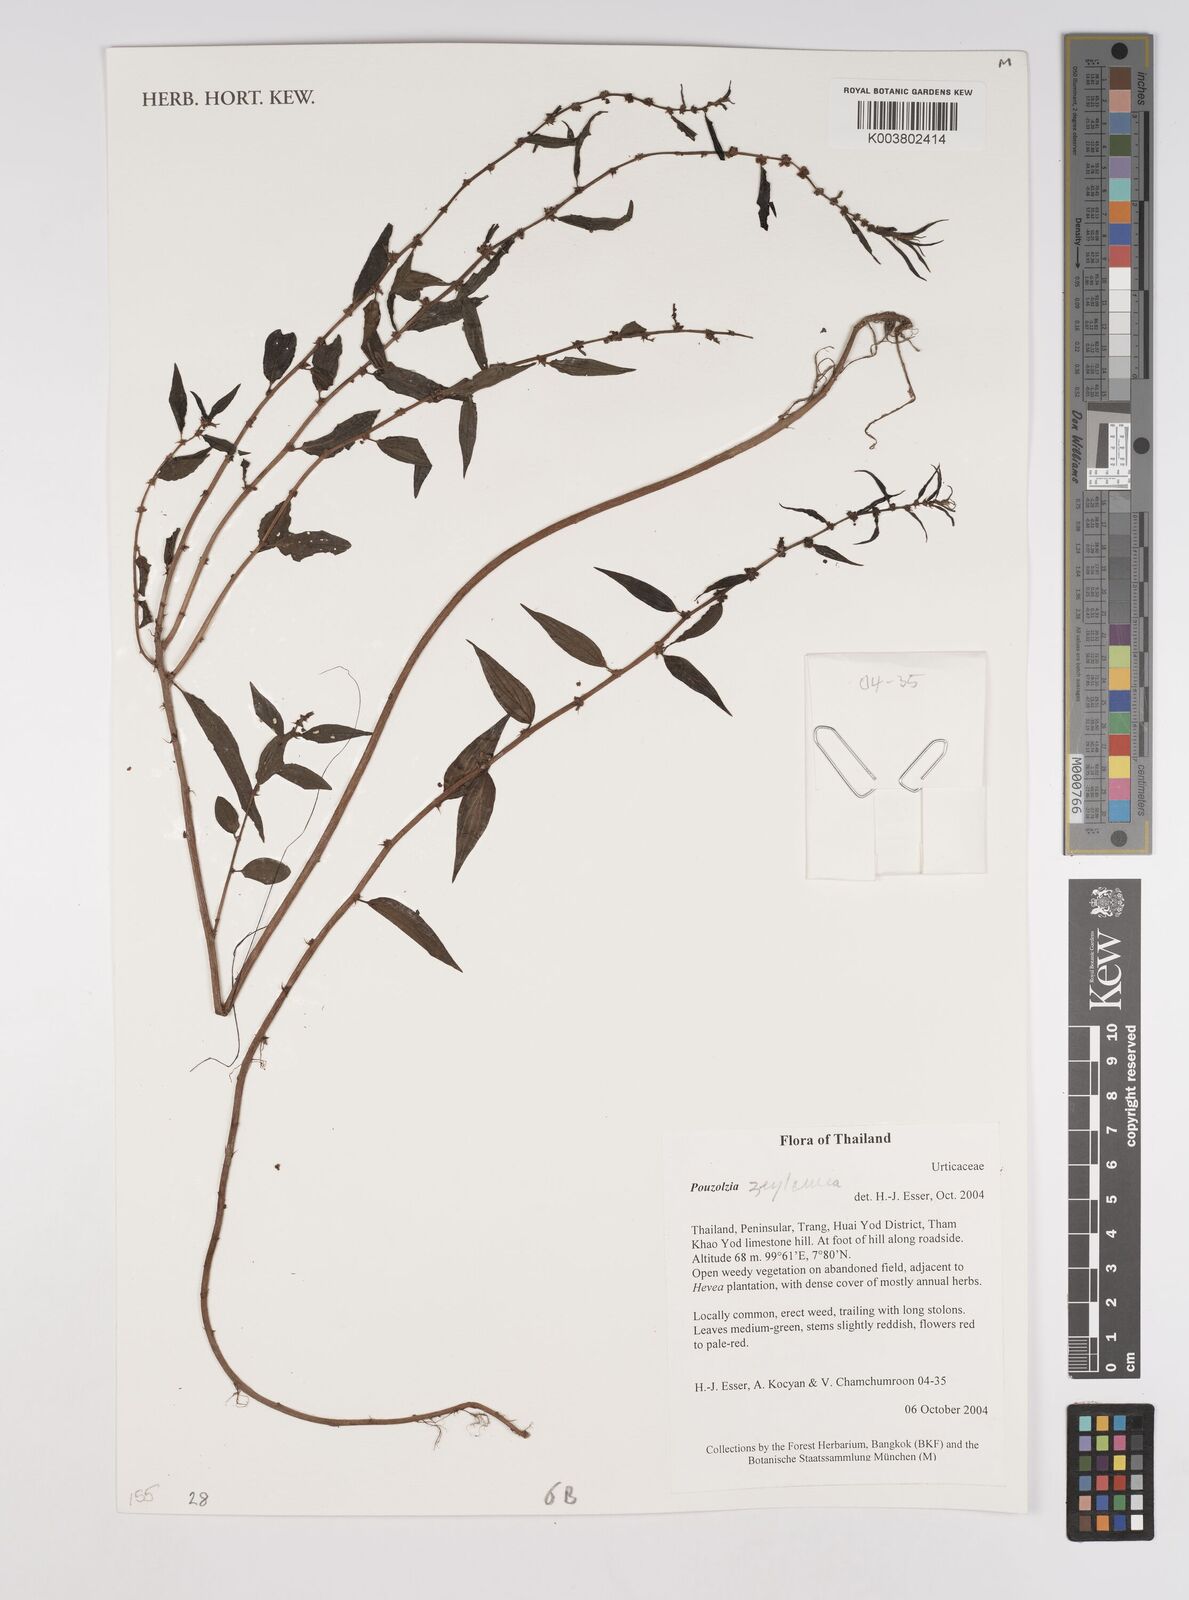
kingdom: Plantae
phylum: Tracheophyta
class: Magnoliopsida
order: Rosales
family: Urticaceae
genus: Pouzolzia
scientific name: Pouzolzia zeylanica
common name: Graceful pouzolzsbush
